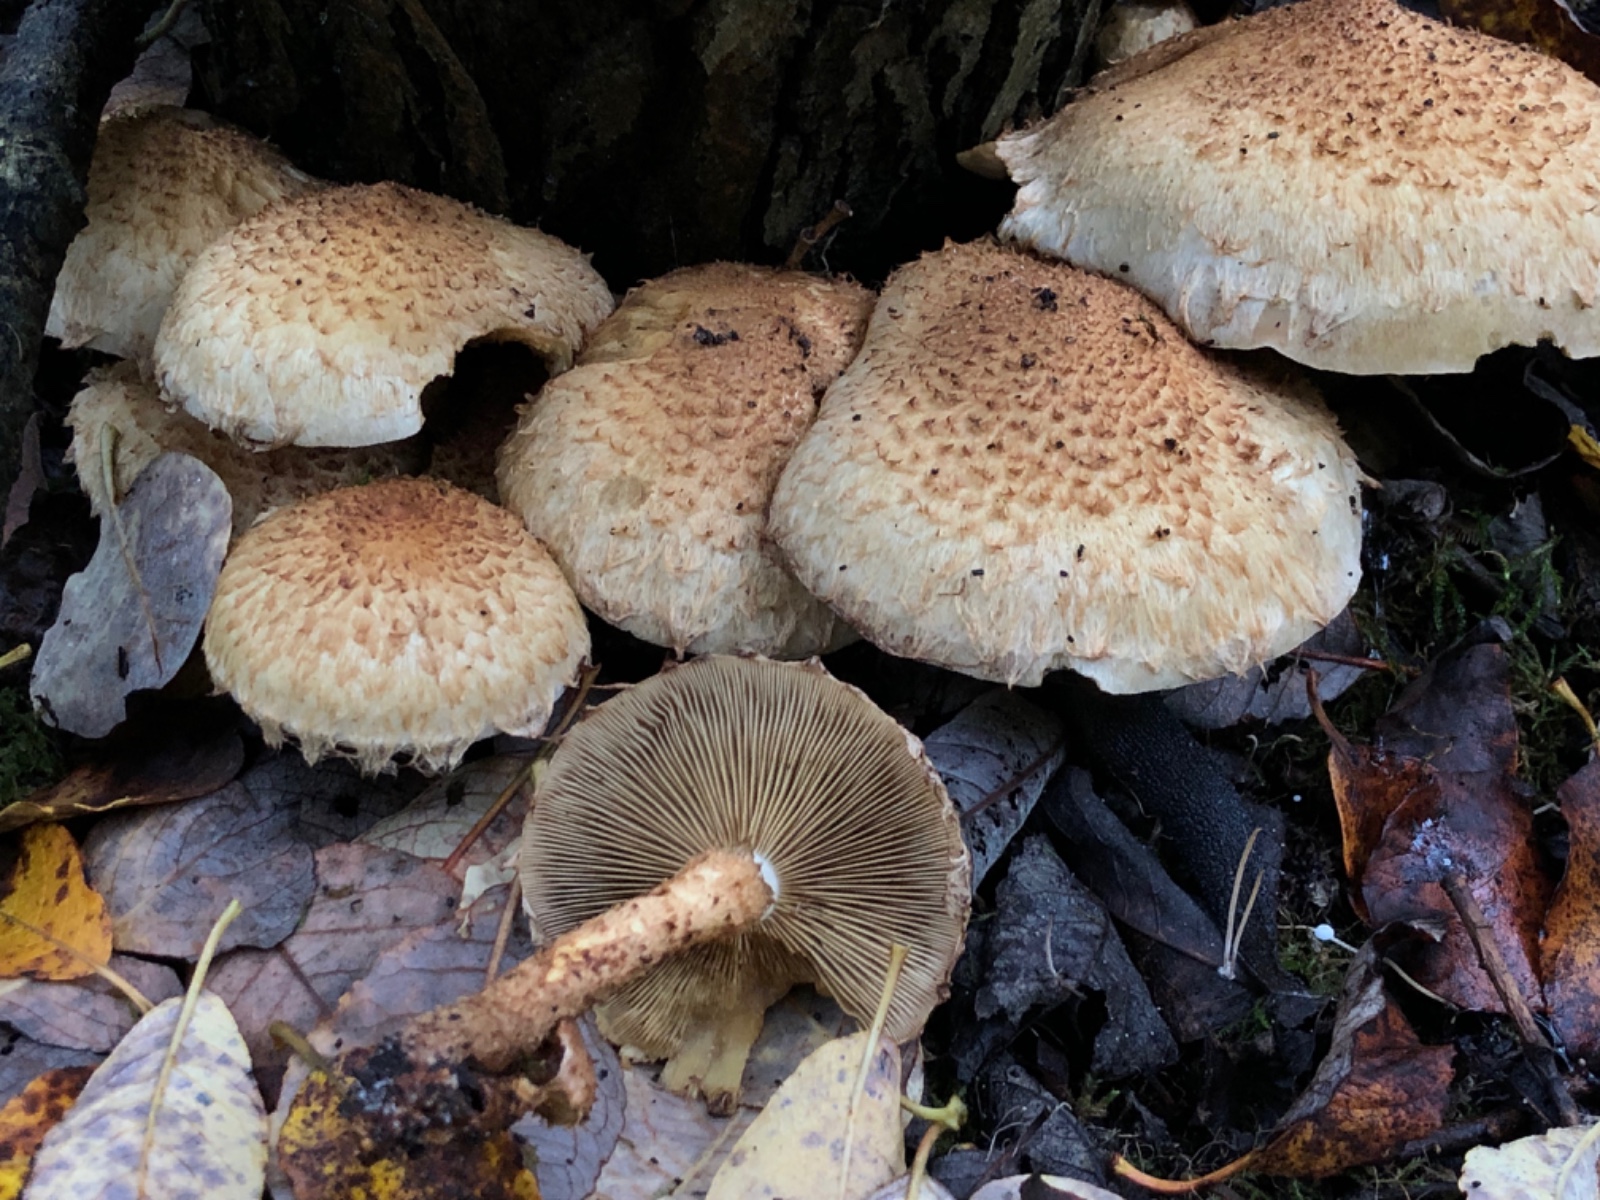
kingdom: Fungi
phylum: Basidiomycota
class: Agaricomycetes
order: Agaricales
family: Strophariaceae
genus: Pholiota
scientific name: Pholiota squarrosa
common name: krumskællet skælhat
